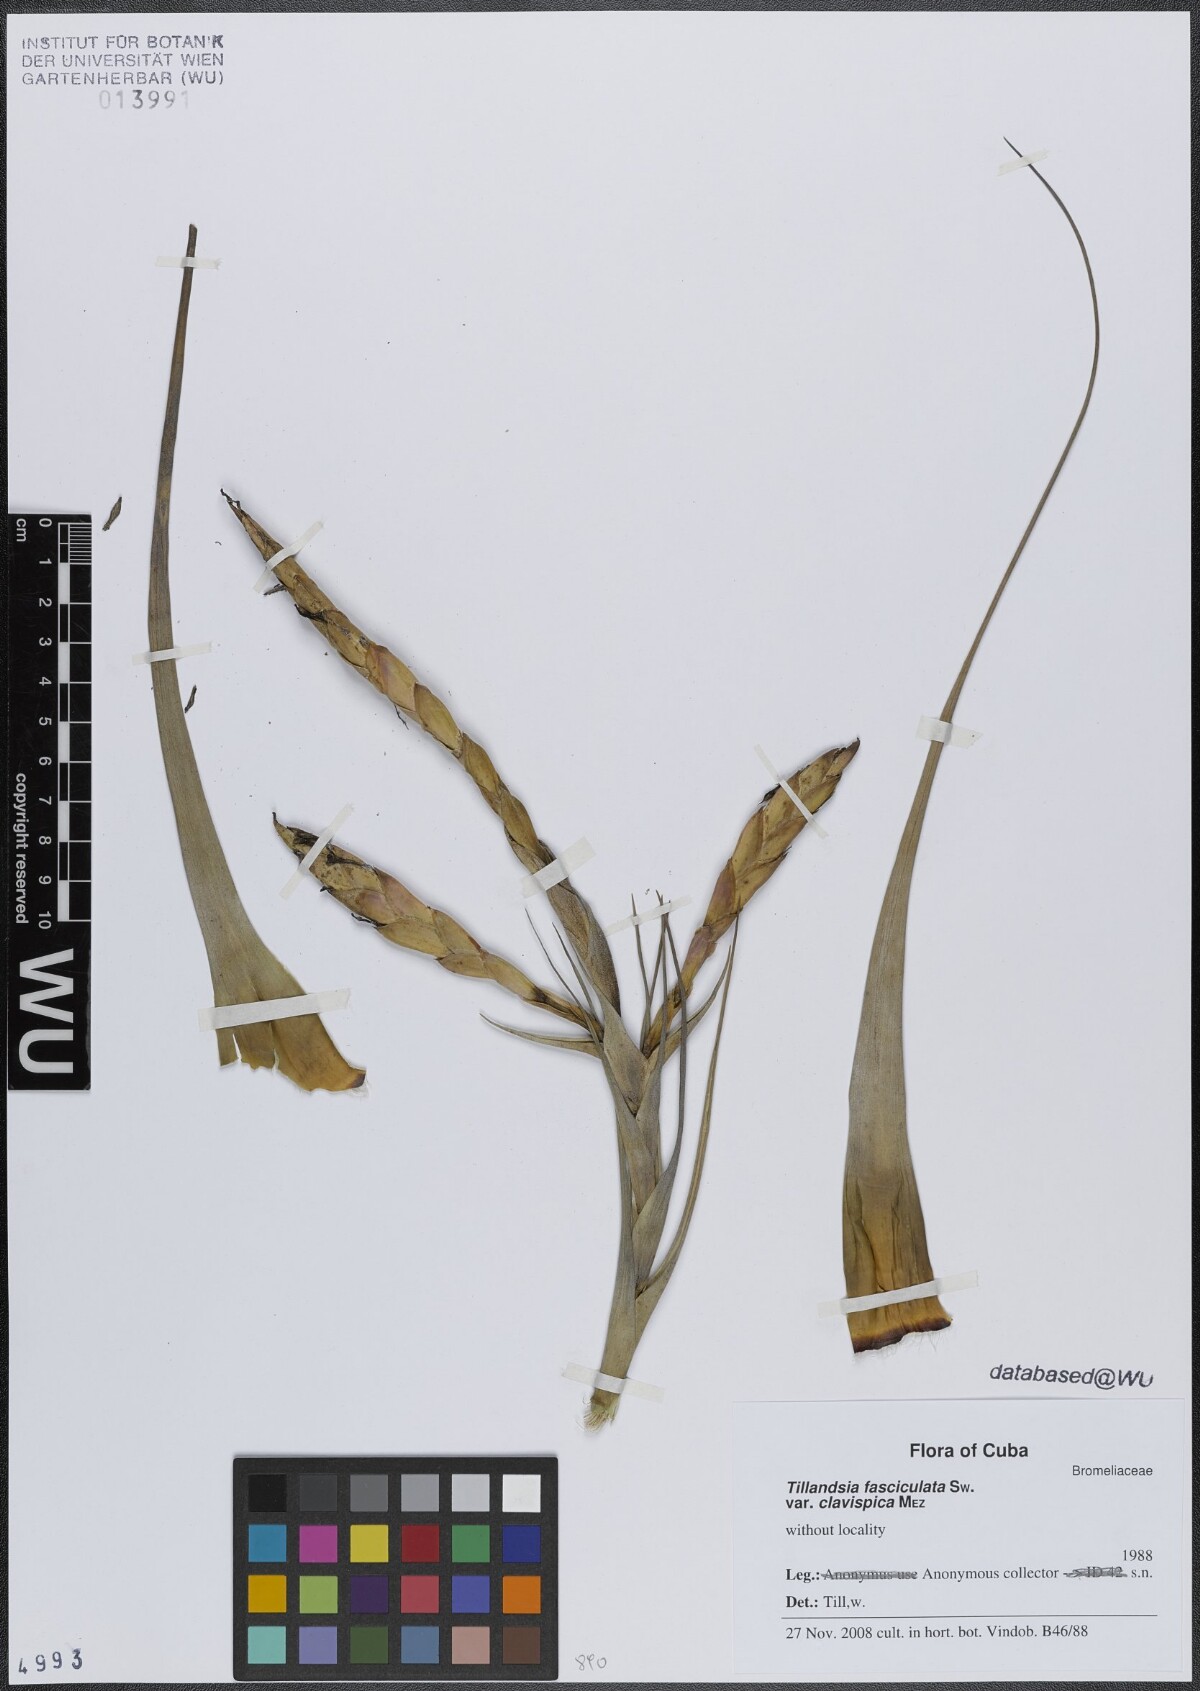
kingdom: Plantae
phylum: Tracheophyta
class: Liliopsida
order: Poales
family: Bromeliaceae
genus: Tillandsia
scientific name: Tillandsia fasciculata
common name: Giant airplant
